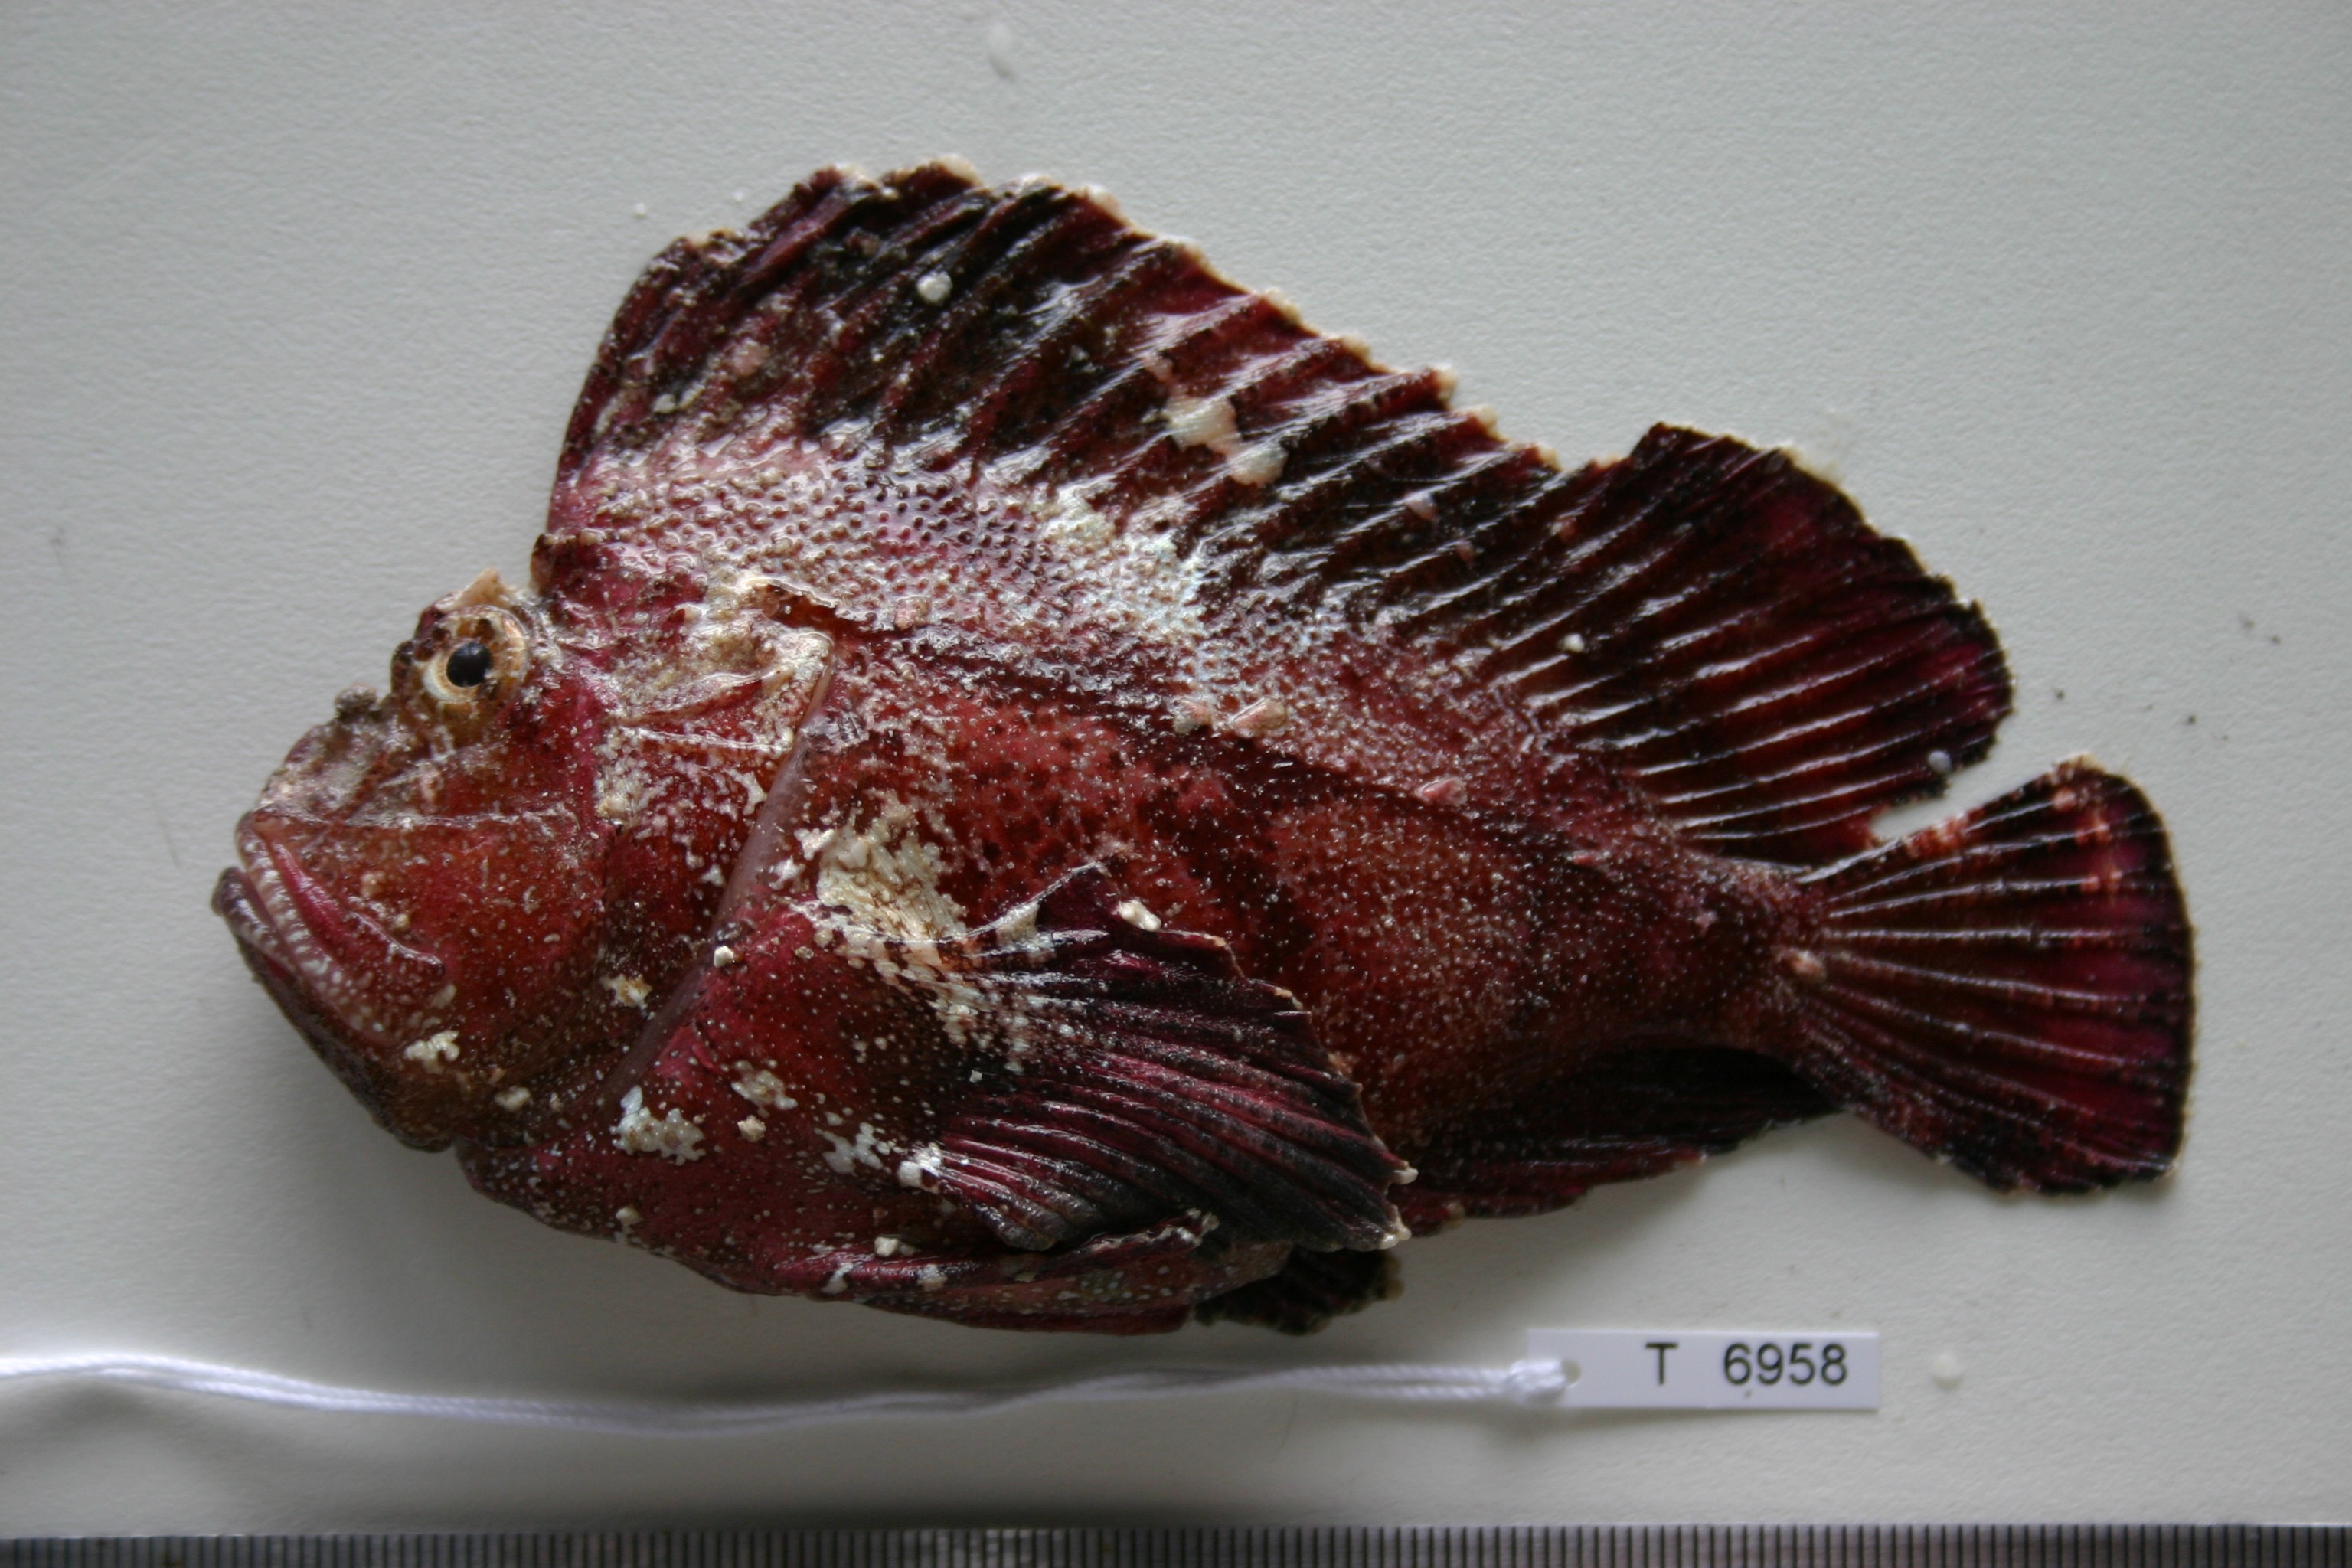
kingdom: Animalia
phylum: Chordata
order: Scorpaeniformes
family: Scorpaenidae
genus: Taenianotus
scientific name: Taenianotus triacanthus
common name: Leaf scorpionfish
